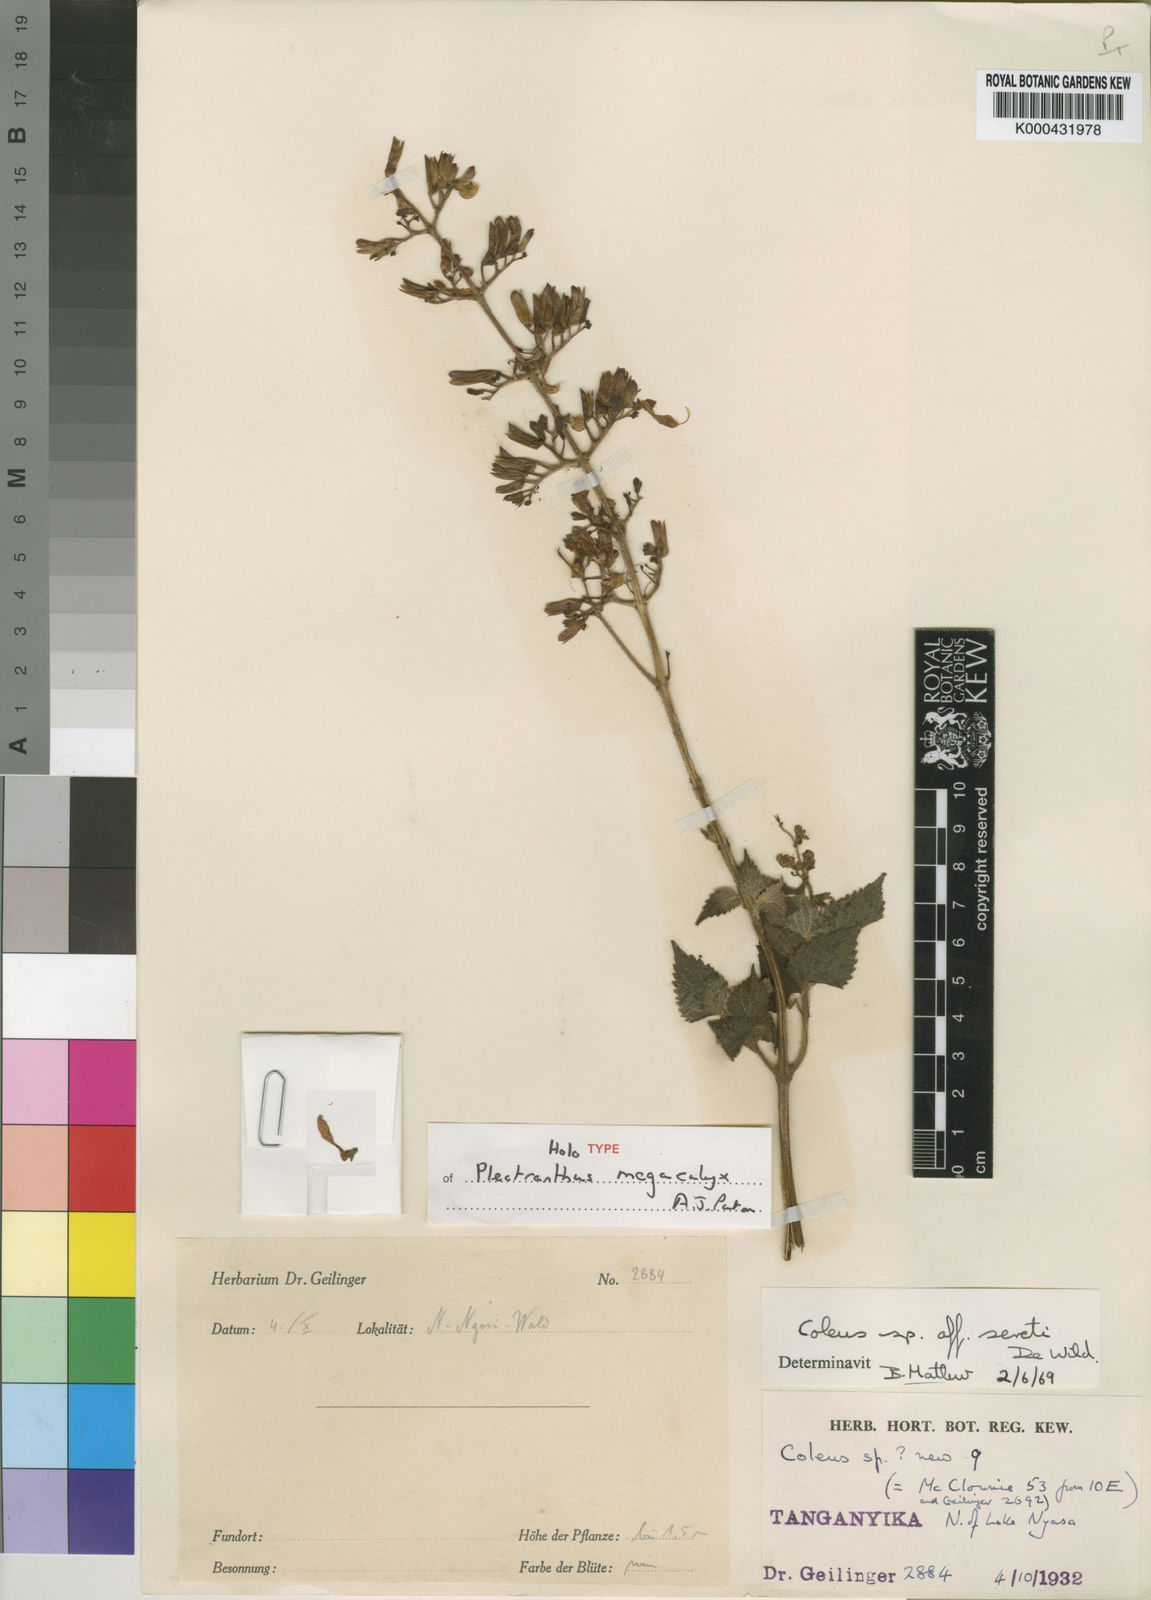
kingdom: Plantae
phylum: Tracheophyta
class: Magnoliopsida
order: Lamiales
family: Lamiaceae
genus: Coleus
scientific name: Coleus megacalyx
